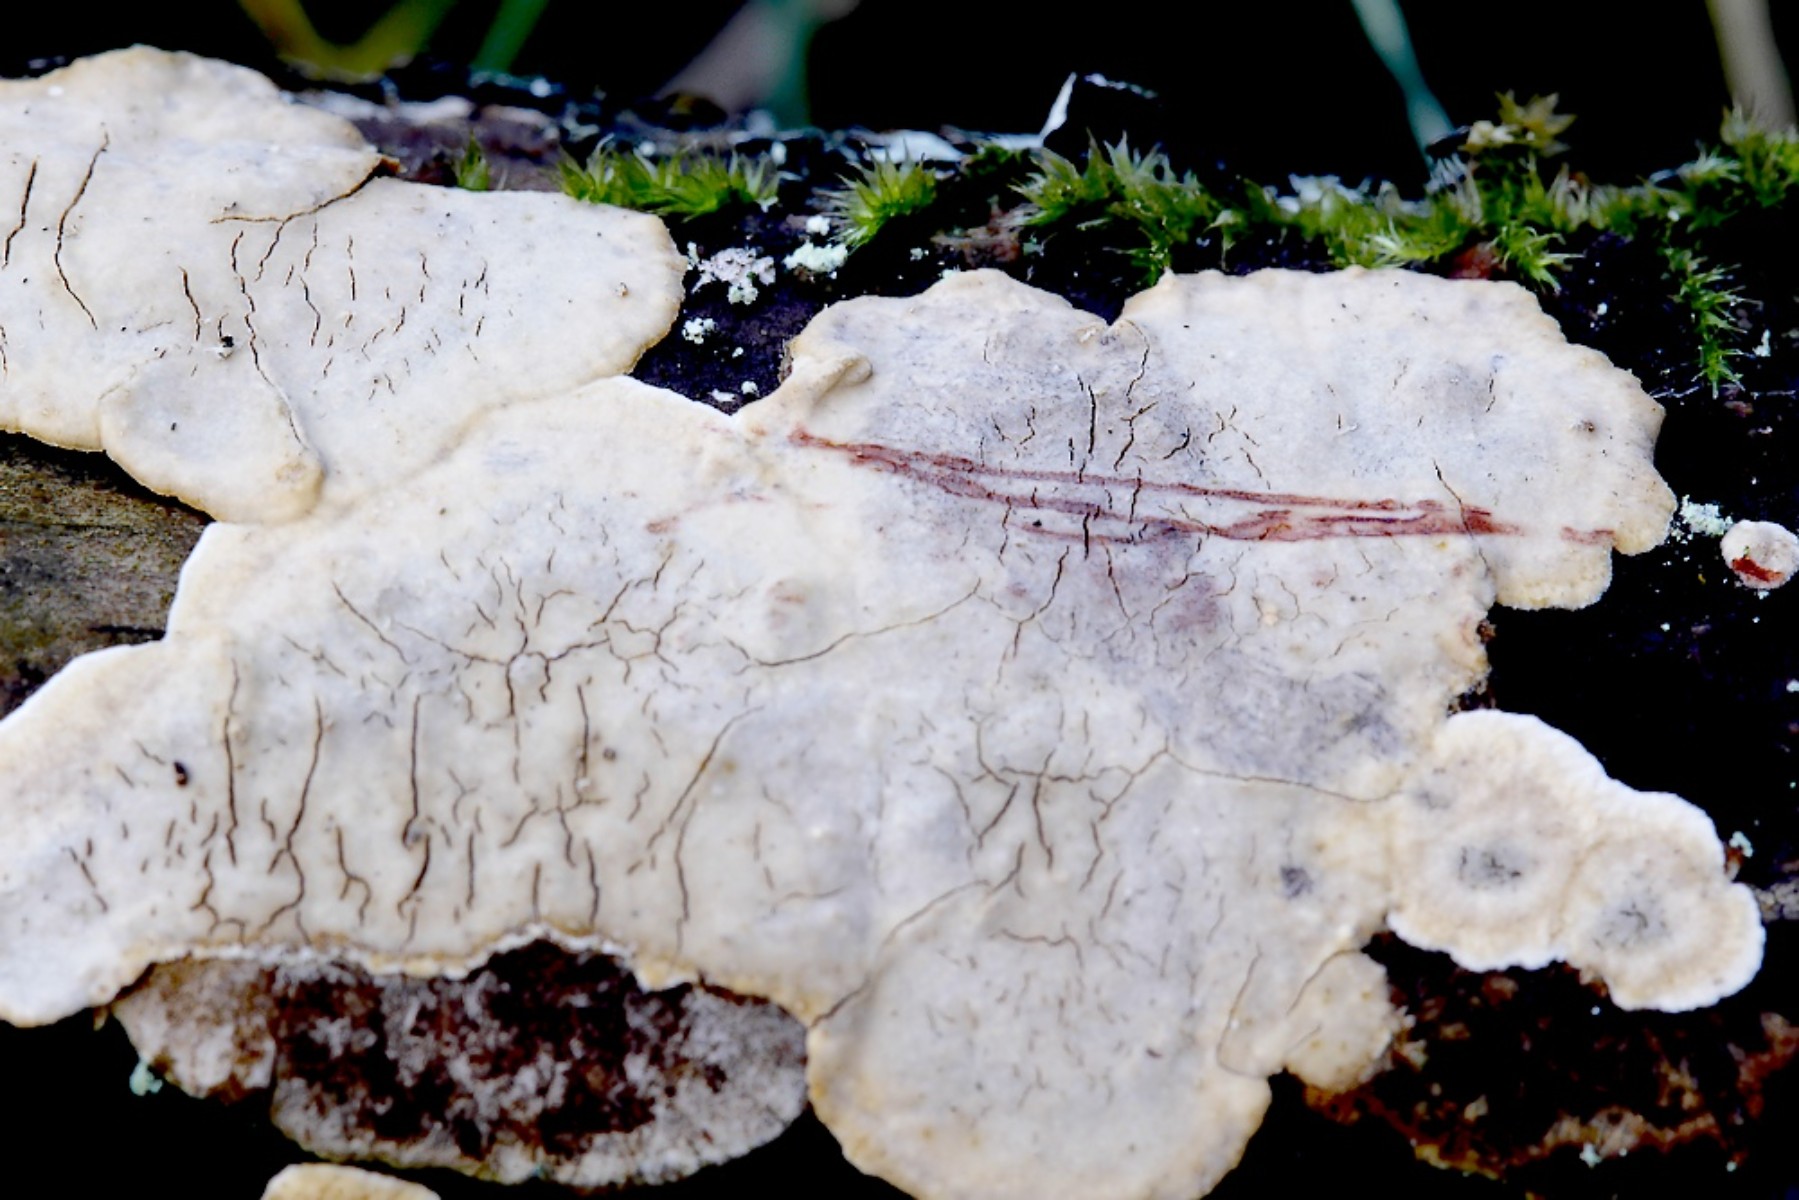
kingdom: Fungi
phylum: Basidiomycota
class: Agaricomycetes
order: Russulales
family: Stereaceae
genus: Stereum
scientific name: Stereum rugosum
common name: rynket lædersvamp
